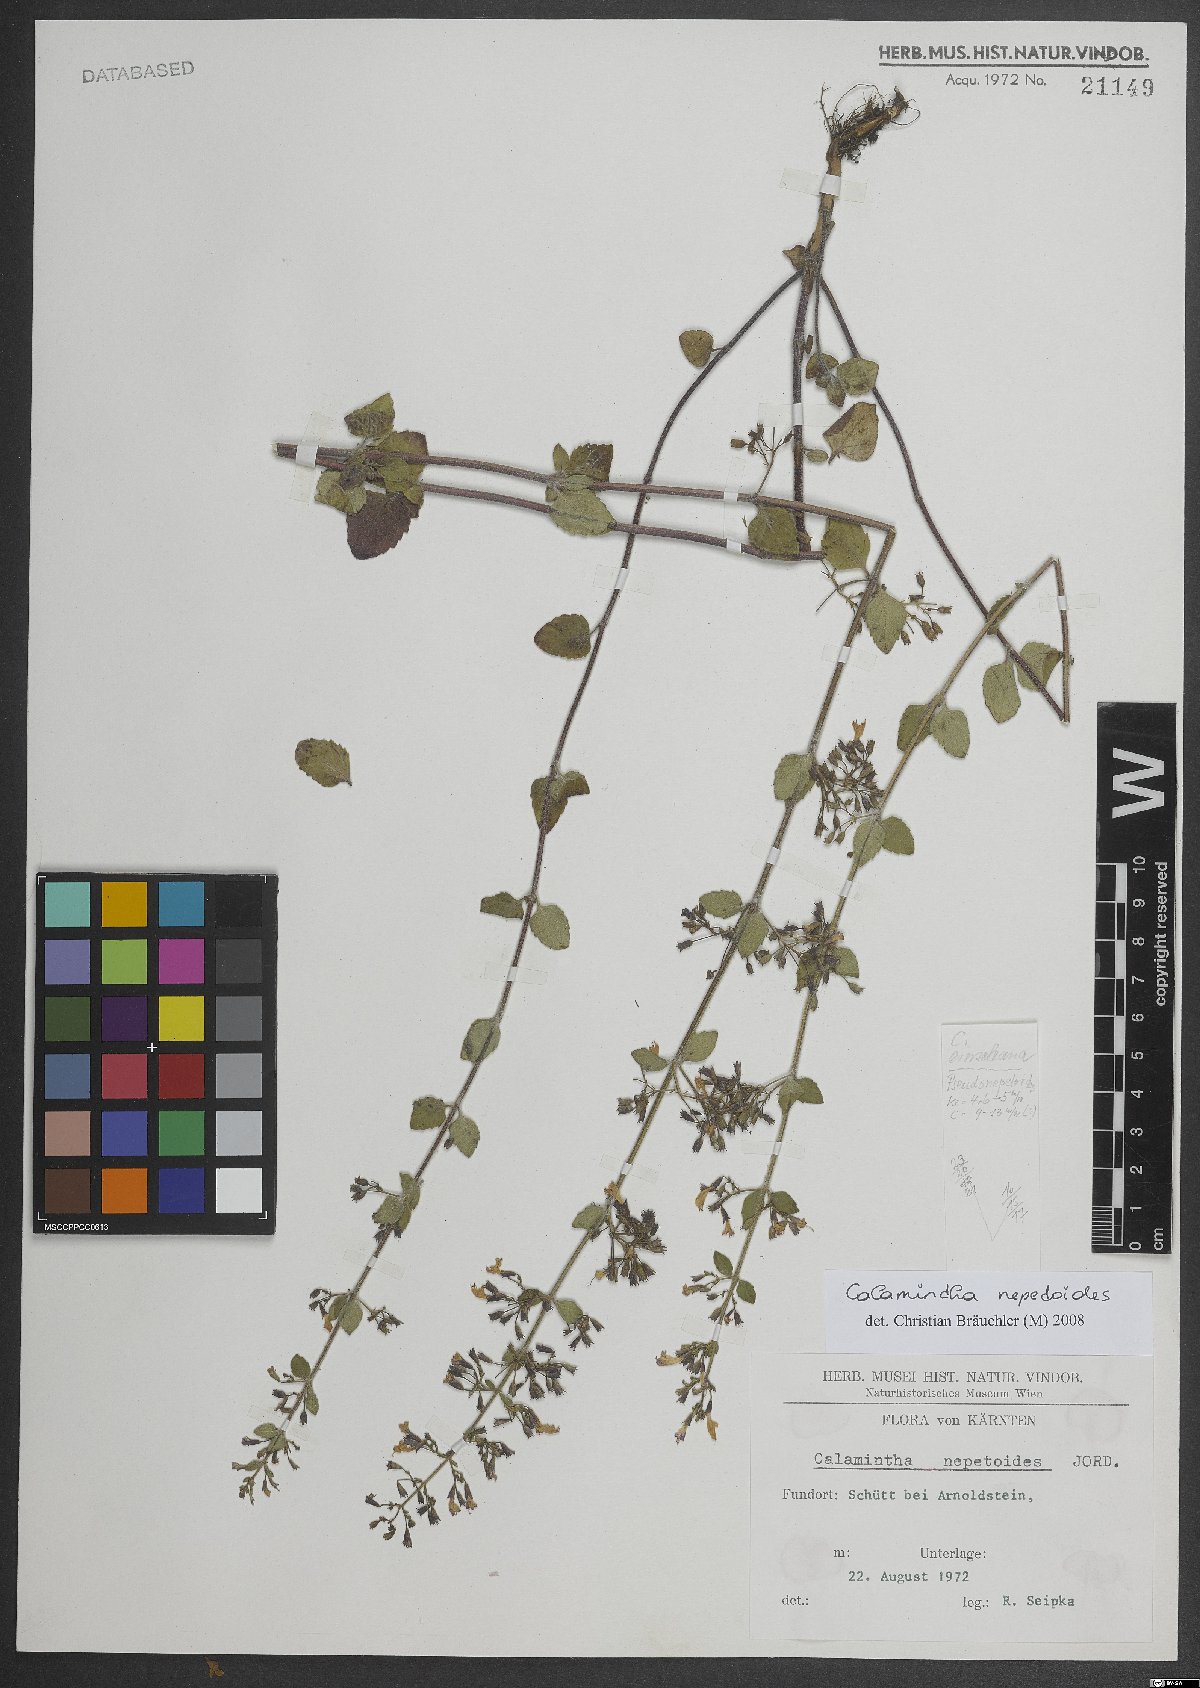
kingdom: Plantae
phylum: Tracheophyta
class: Magnoliopsida
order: Lamiales
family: Lamiaceae
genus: Clinopodium
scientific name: Clinopodium nepeta
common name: Lesser calamint
